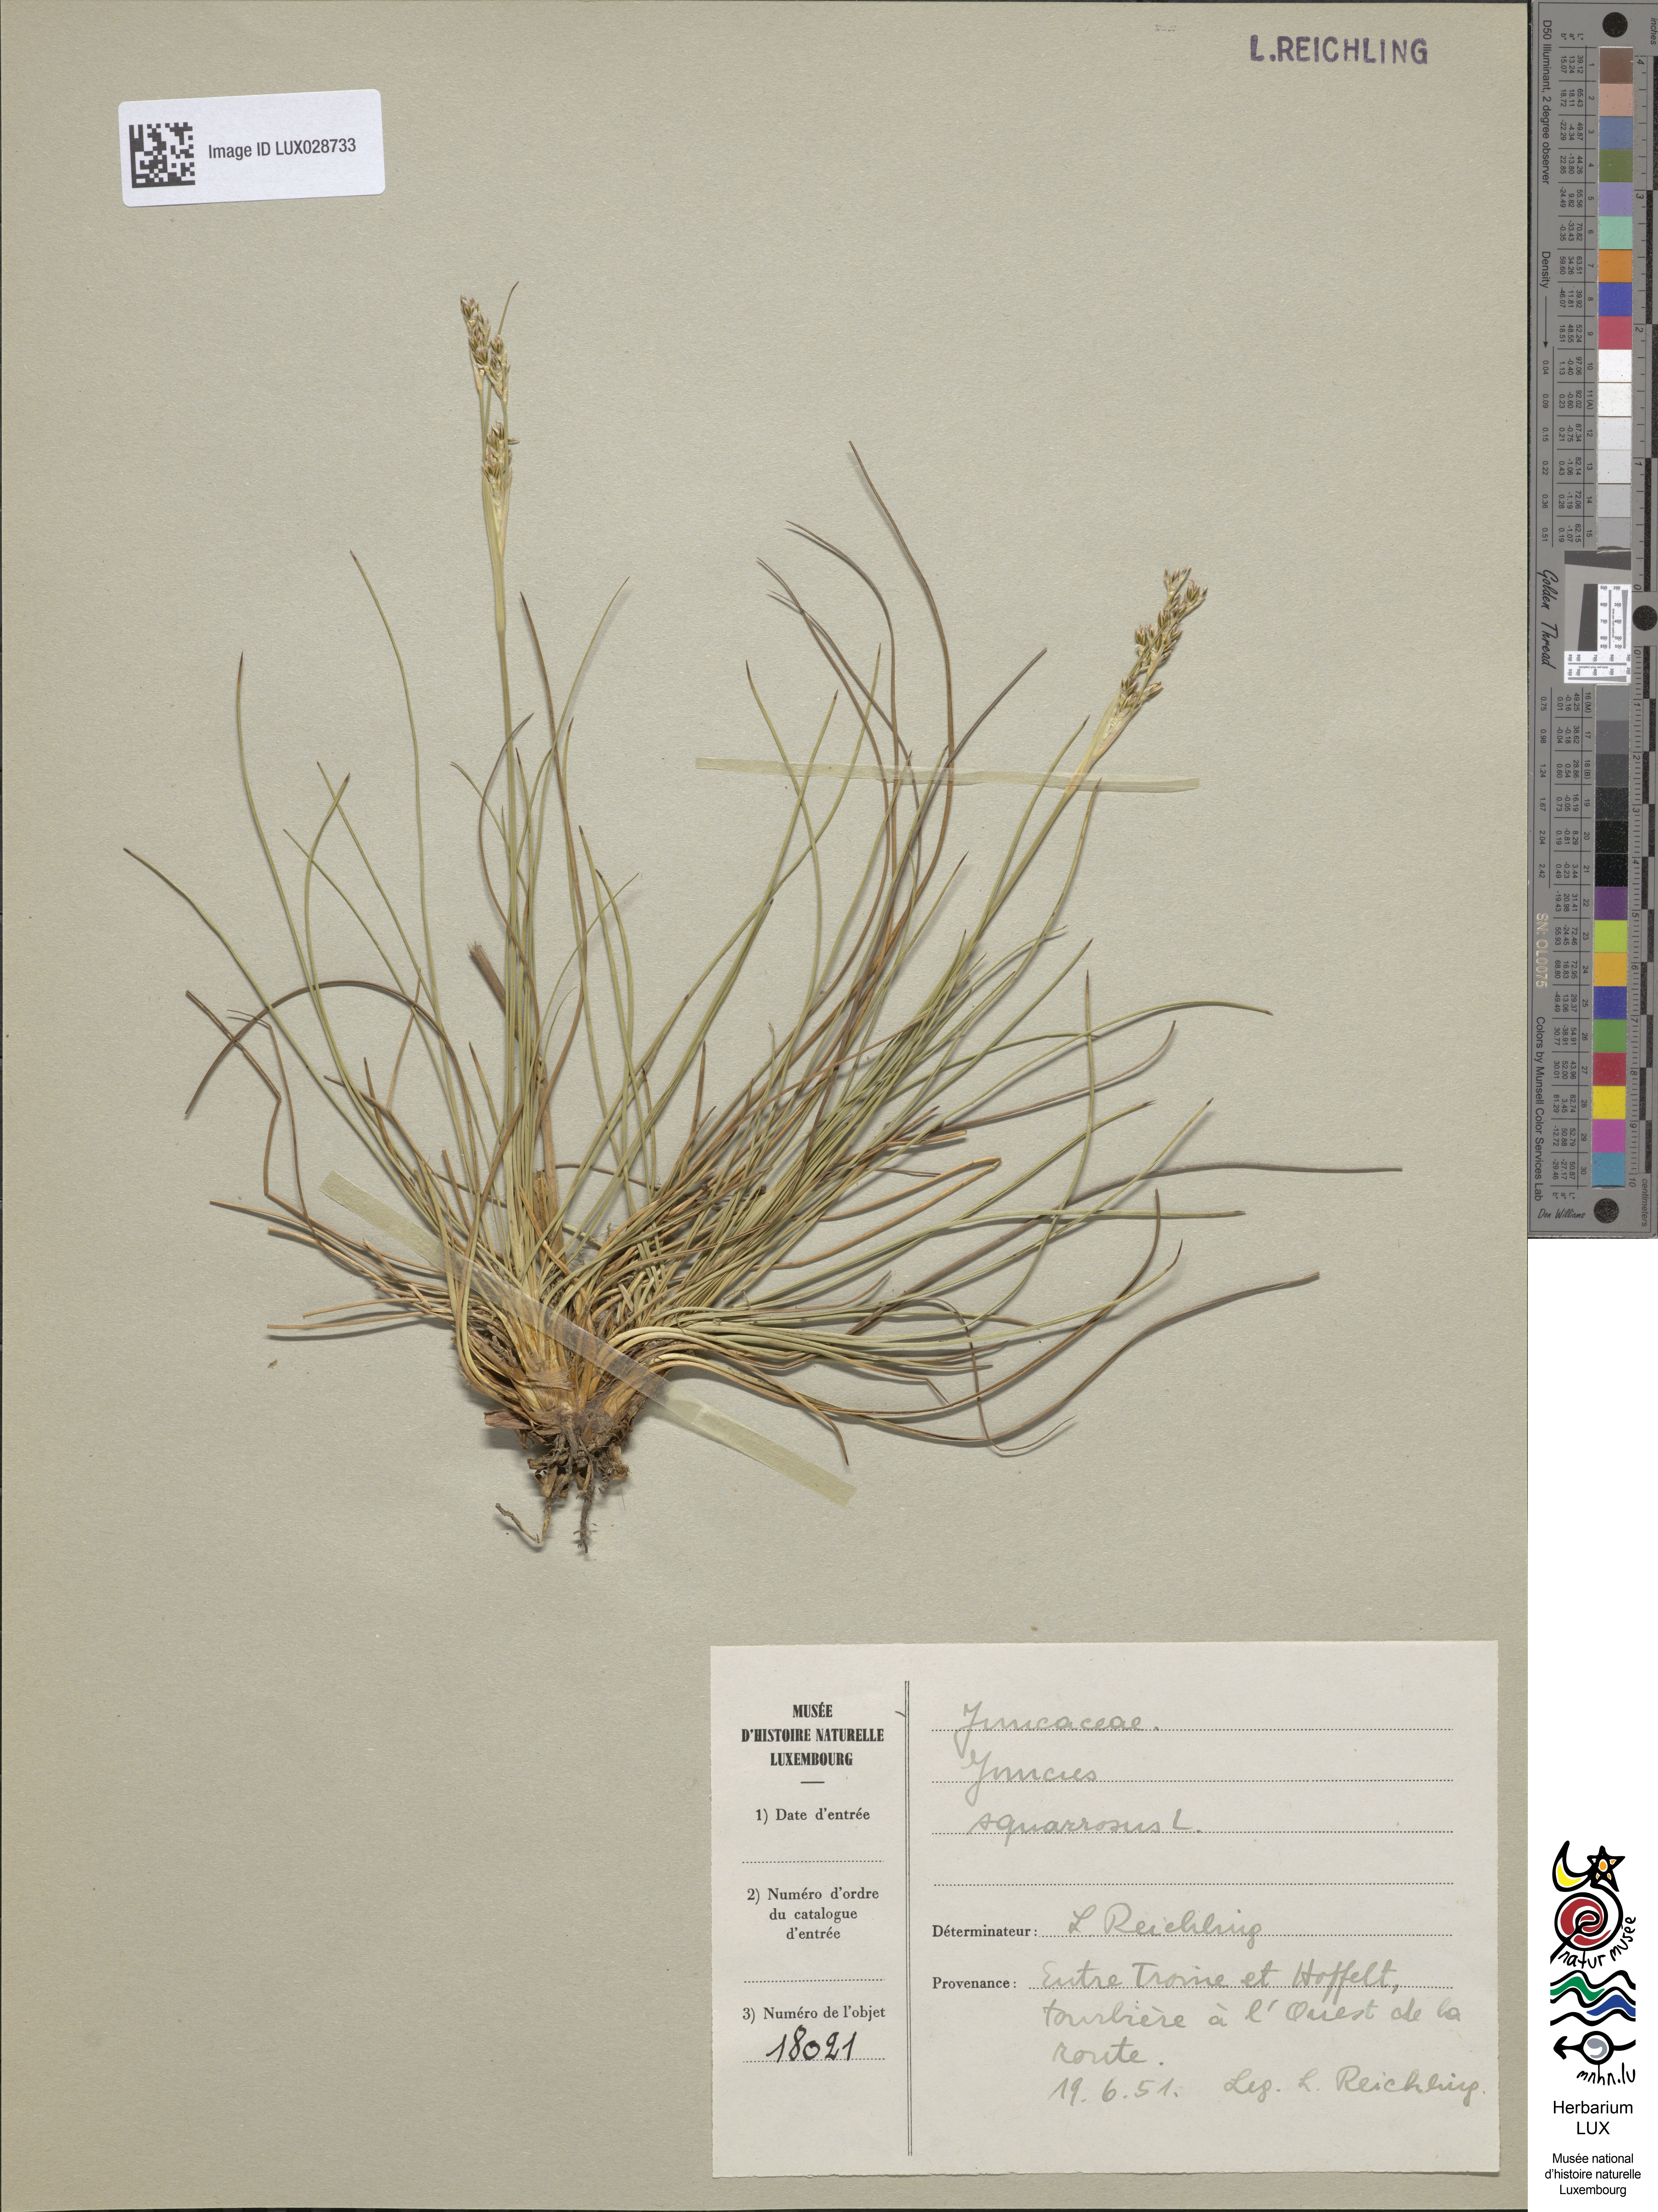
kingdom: Plantae
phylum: Tracheophyta
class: Liliopsida
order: Poales
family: Juncaceae
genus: Juncus
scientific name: Juncus squarrosus
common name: Heath rush
